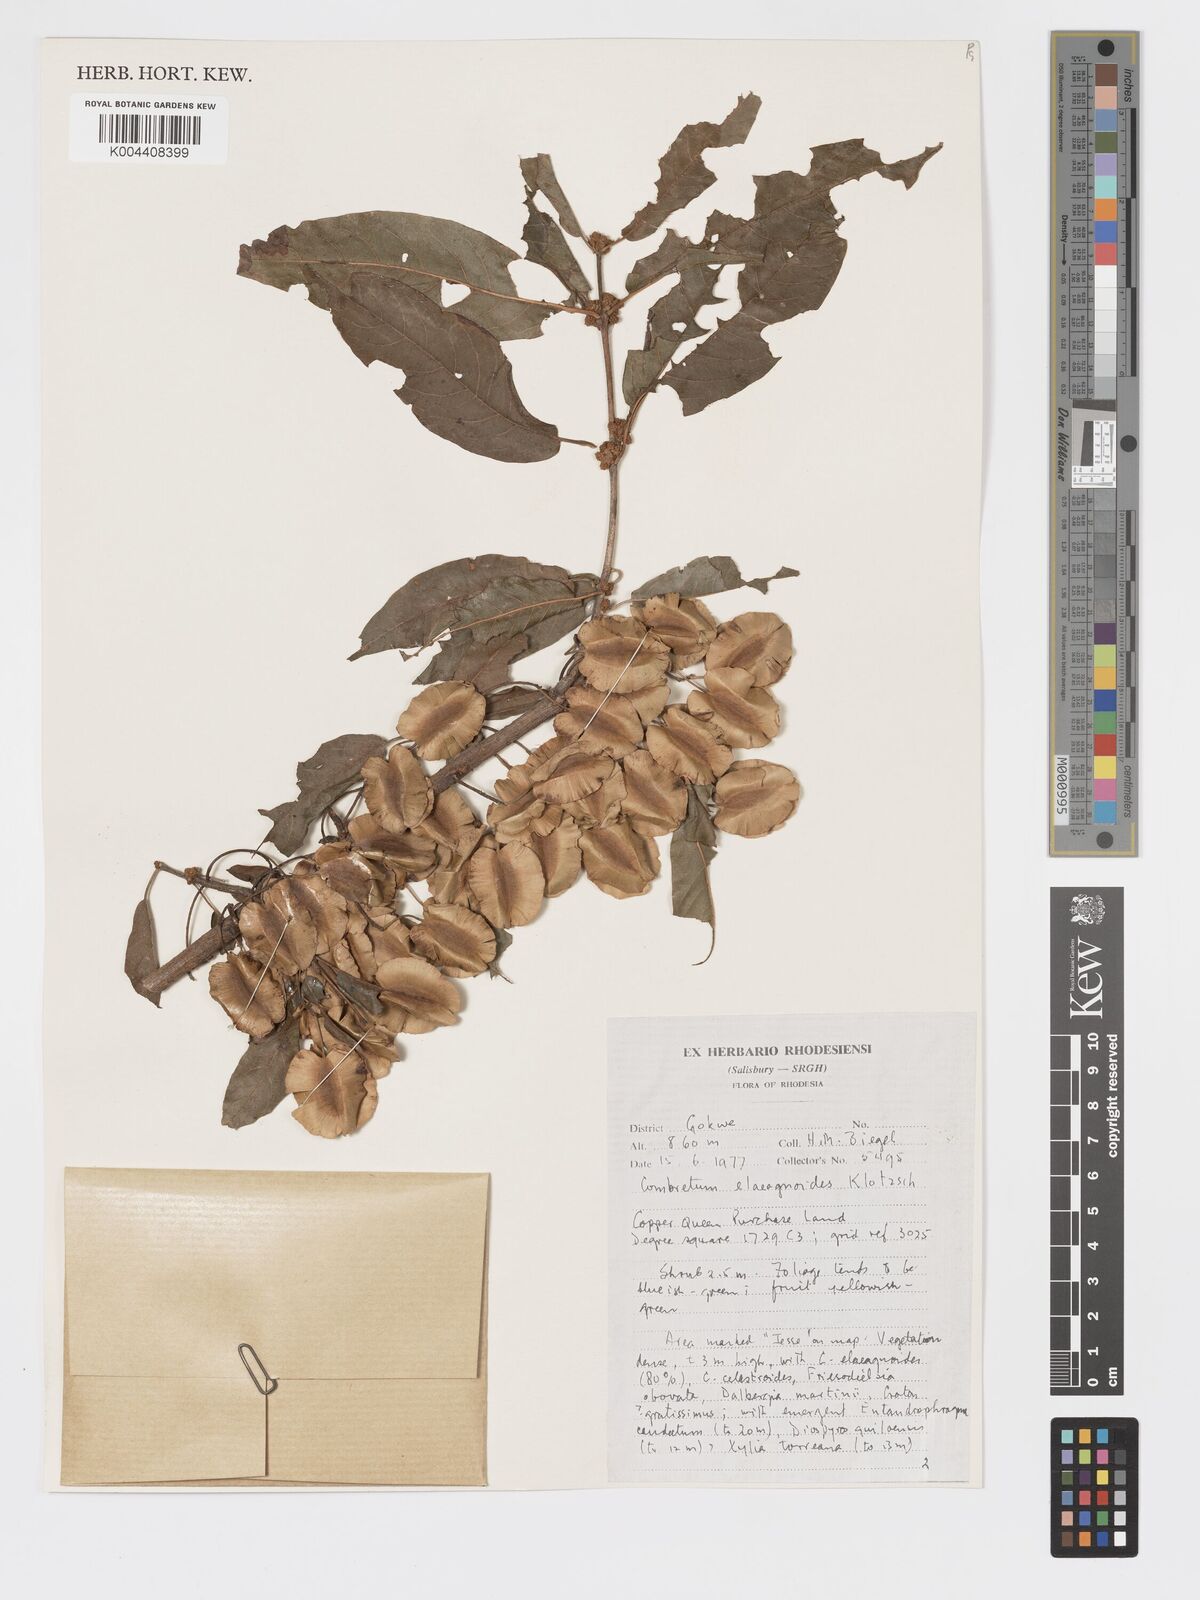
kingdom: Plantae
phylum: Tracheophyta
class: Magnoliopsida
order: Myrtales
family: Combretaceae
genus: Combretum
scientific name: Combretum elaeagnoides
